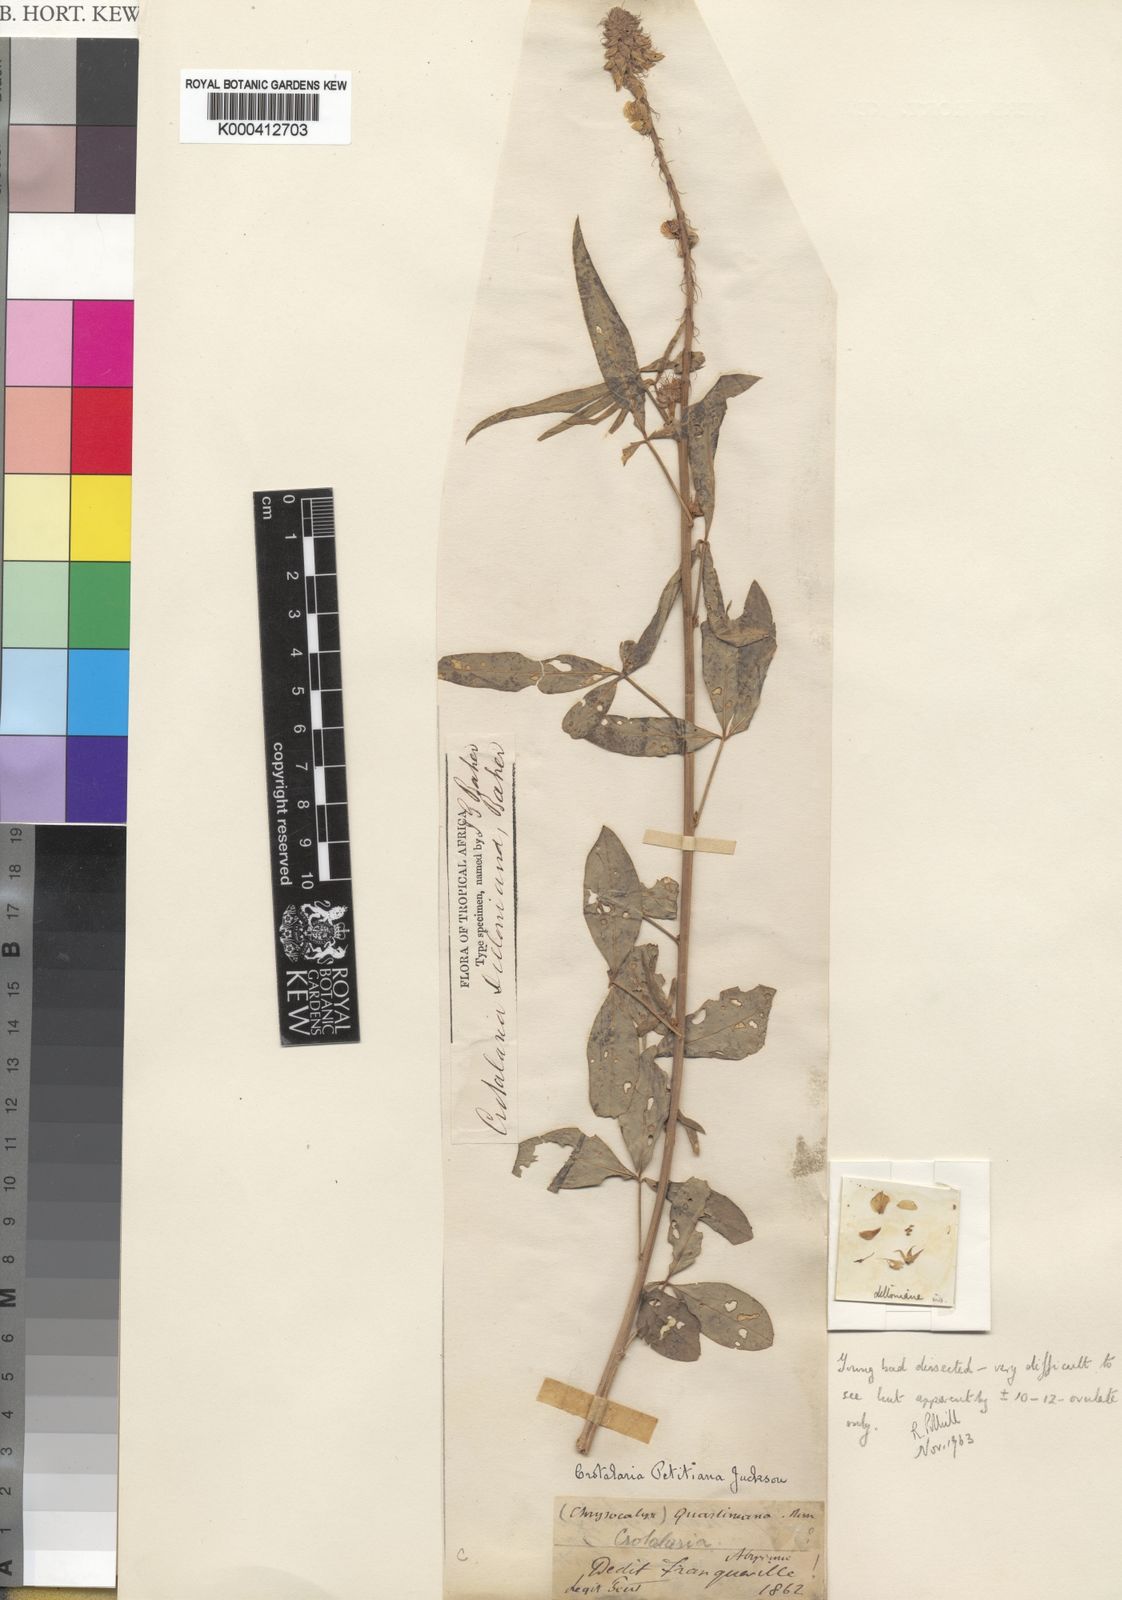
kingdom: Plantae
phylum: Tracheophyta
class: Magnoliopsida
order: Fabales
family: Fabaceae
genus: Crotalaria
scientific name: Crotalaria
